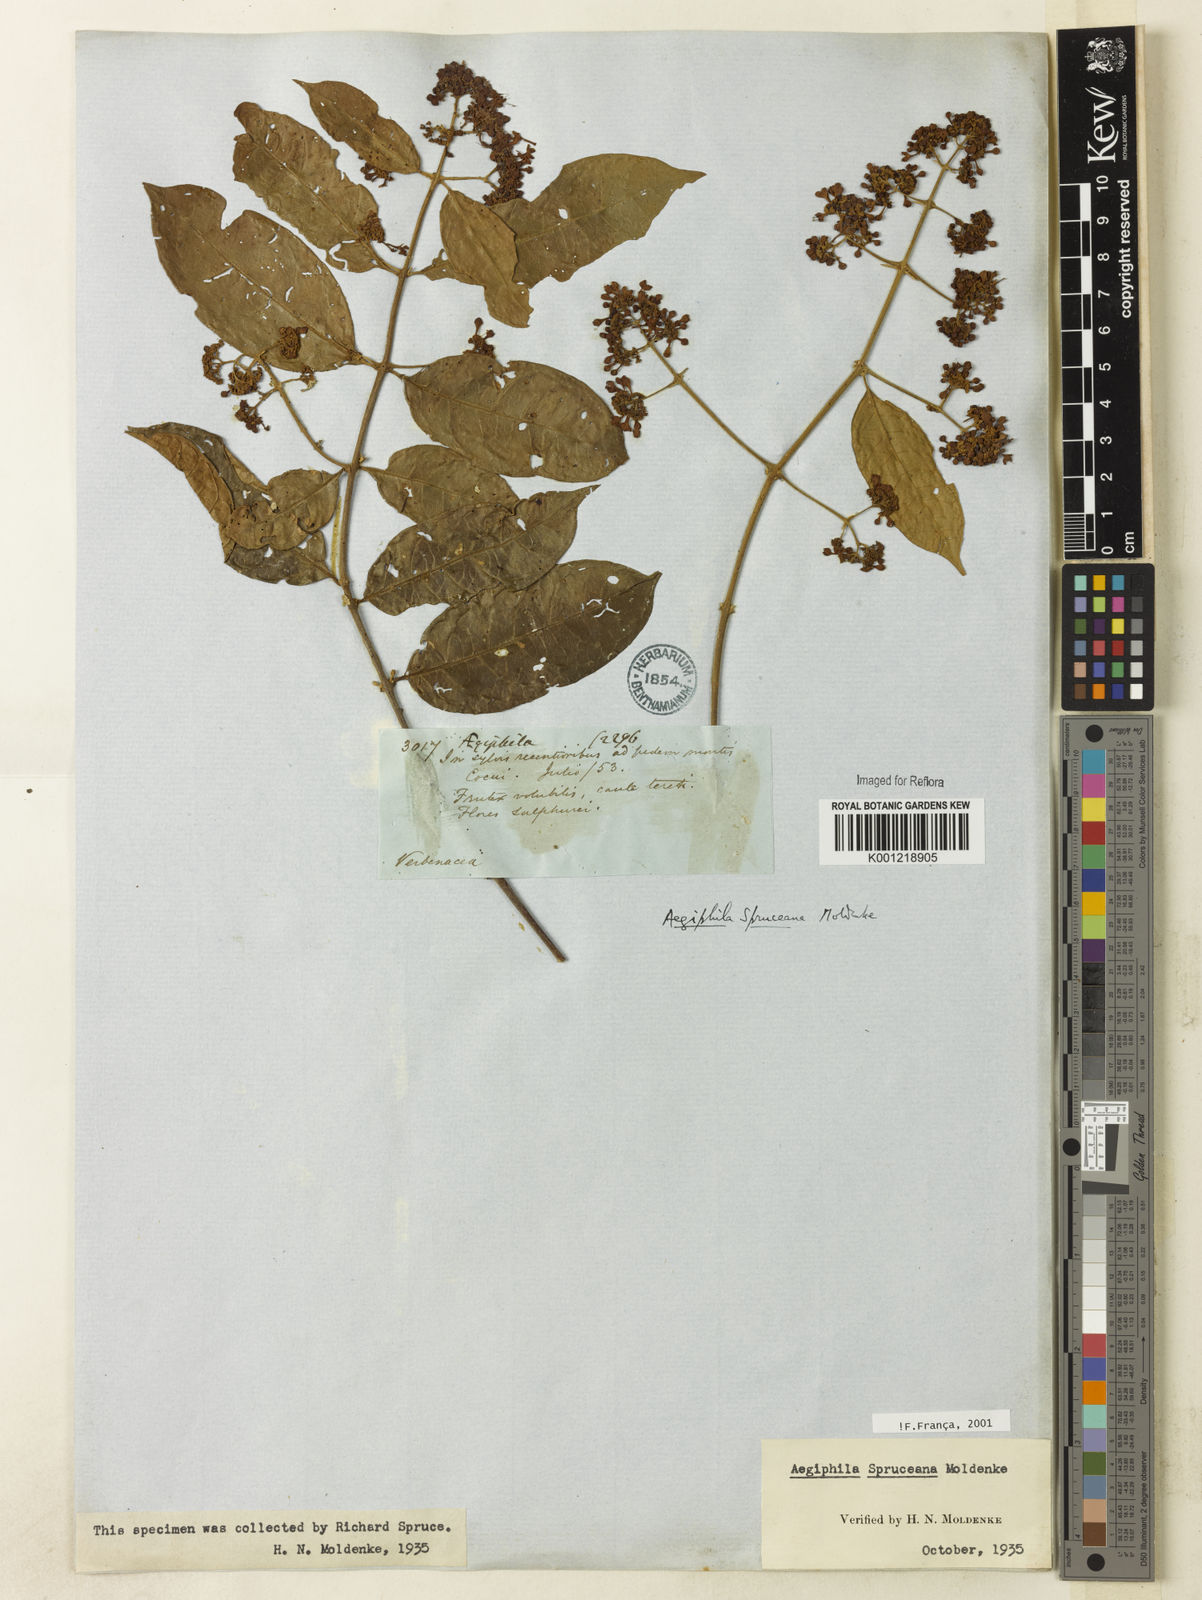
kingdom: Plantae
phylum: Tracheophyta
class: Magnoliopsida
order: Lamiales
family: Lamiaceae
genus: Aegiphila
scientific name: Aegiphila spruceana
